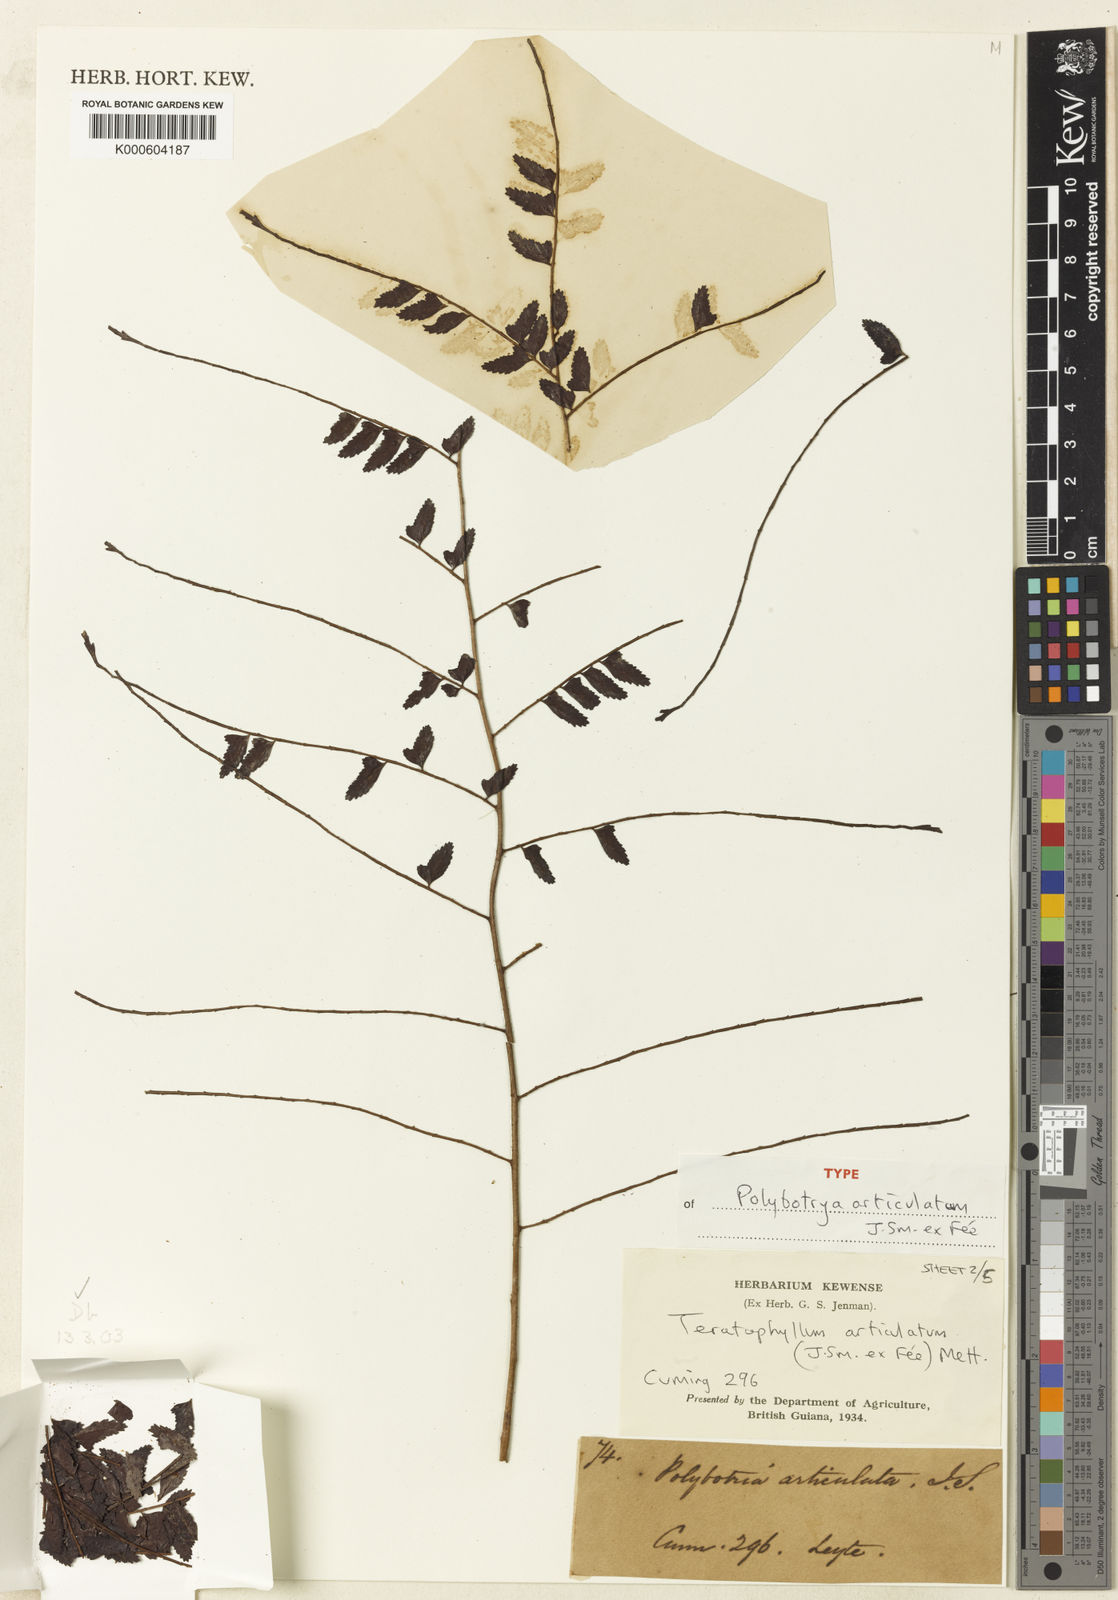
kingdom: Plantae
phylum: Tracheophyta
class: Polypodiopsida
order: Polypodiales
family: Dryopteridaceae
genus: Arthrobotrya
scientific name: Arthrobotrya articulata
